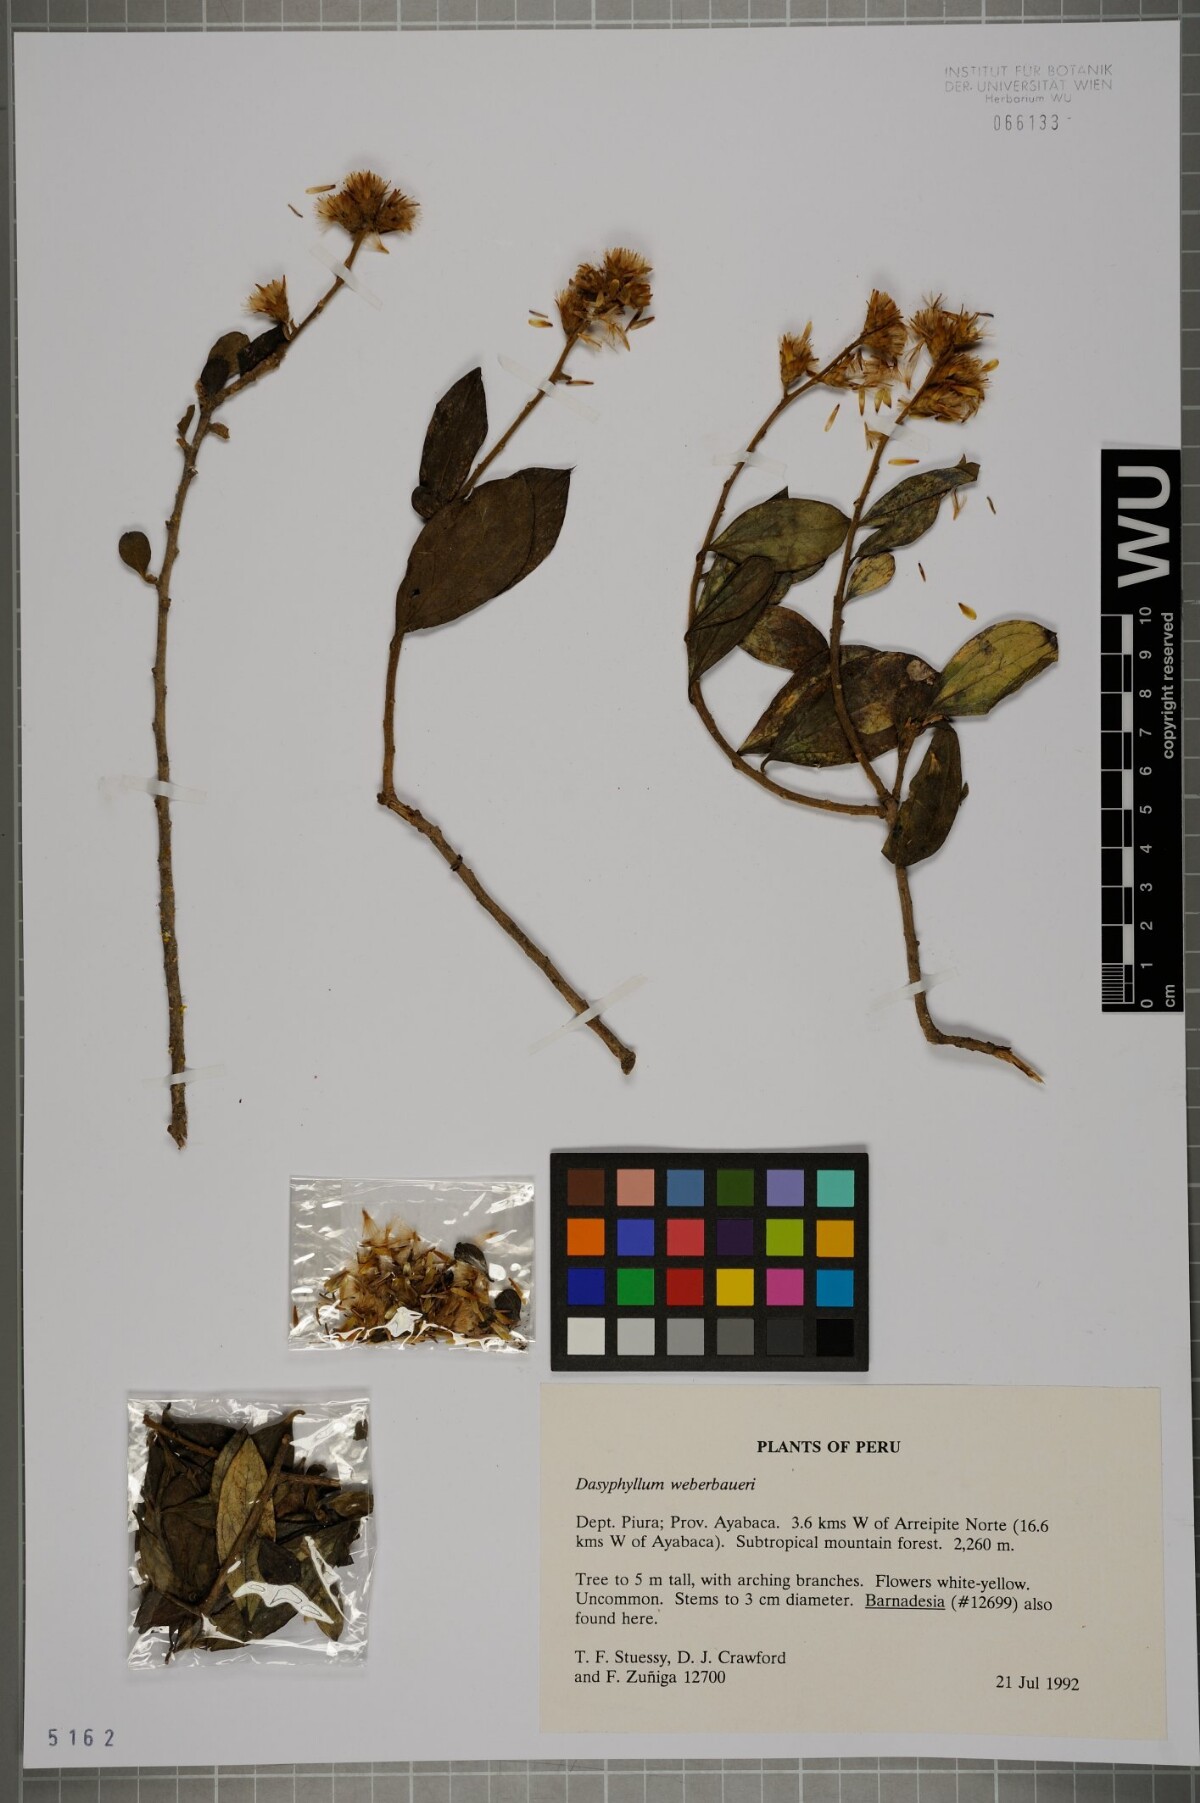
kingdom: Plantae
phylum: Tracheophyta
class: Magnoliopsida
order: Asterales
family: Asteraceae
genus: Dasyphyllum
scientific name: Dasyphyllum popayanense
